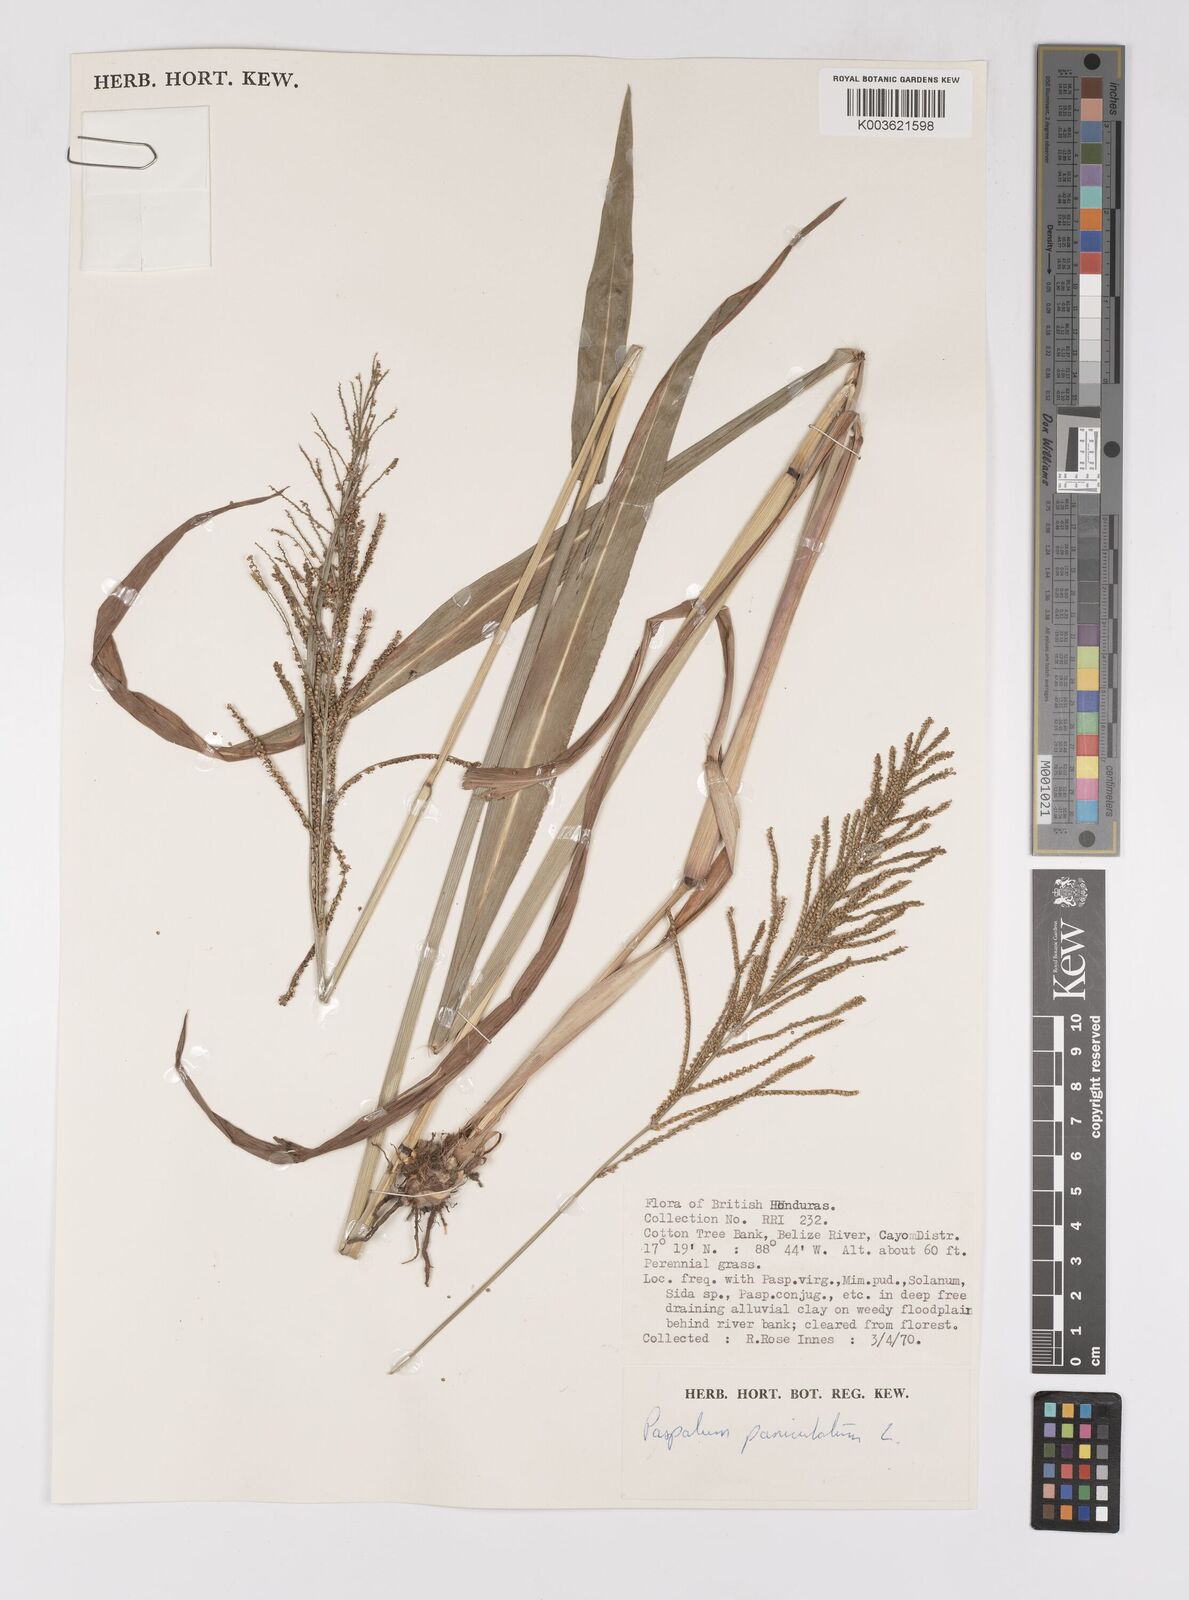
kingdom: Plantae
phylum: Tracheophyta
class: Liliopsida
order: Poales
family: Poaceae
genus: Paspalum
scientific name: Paspalum paniculatum
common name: Arrocillo
